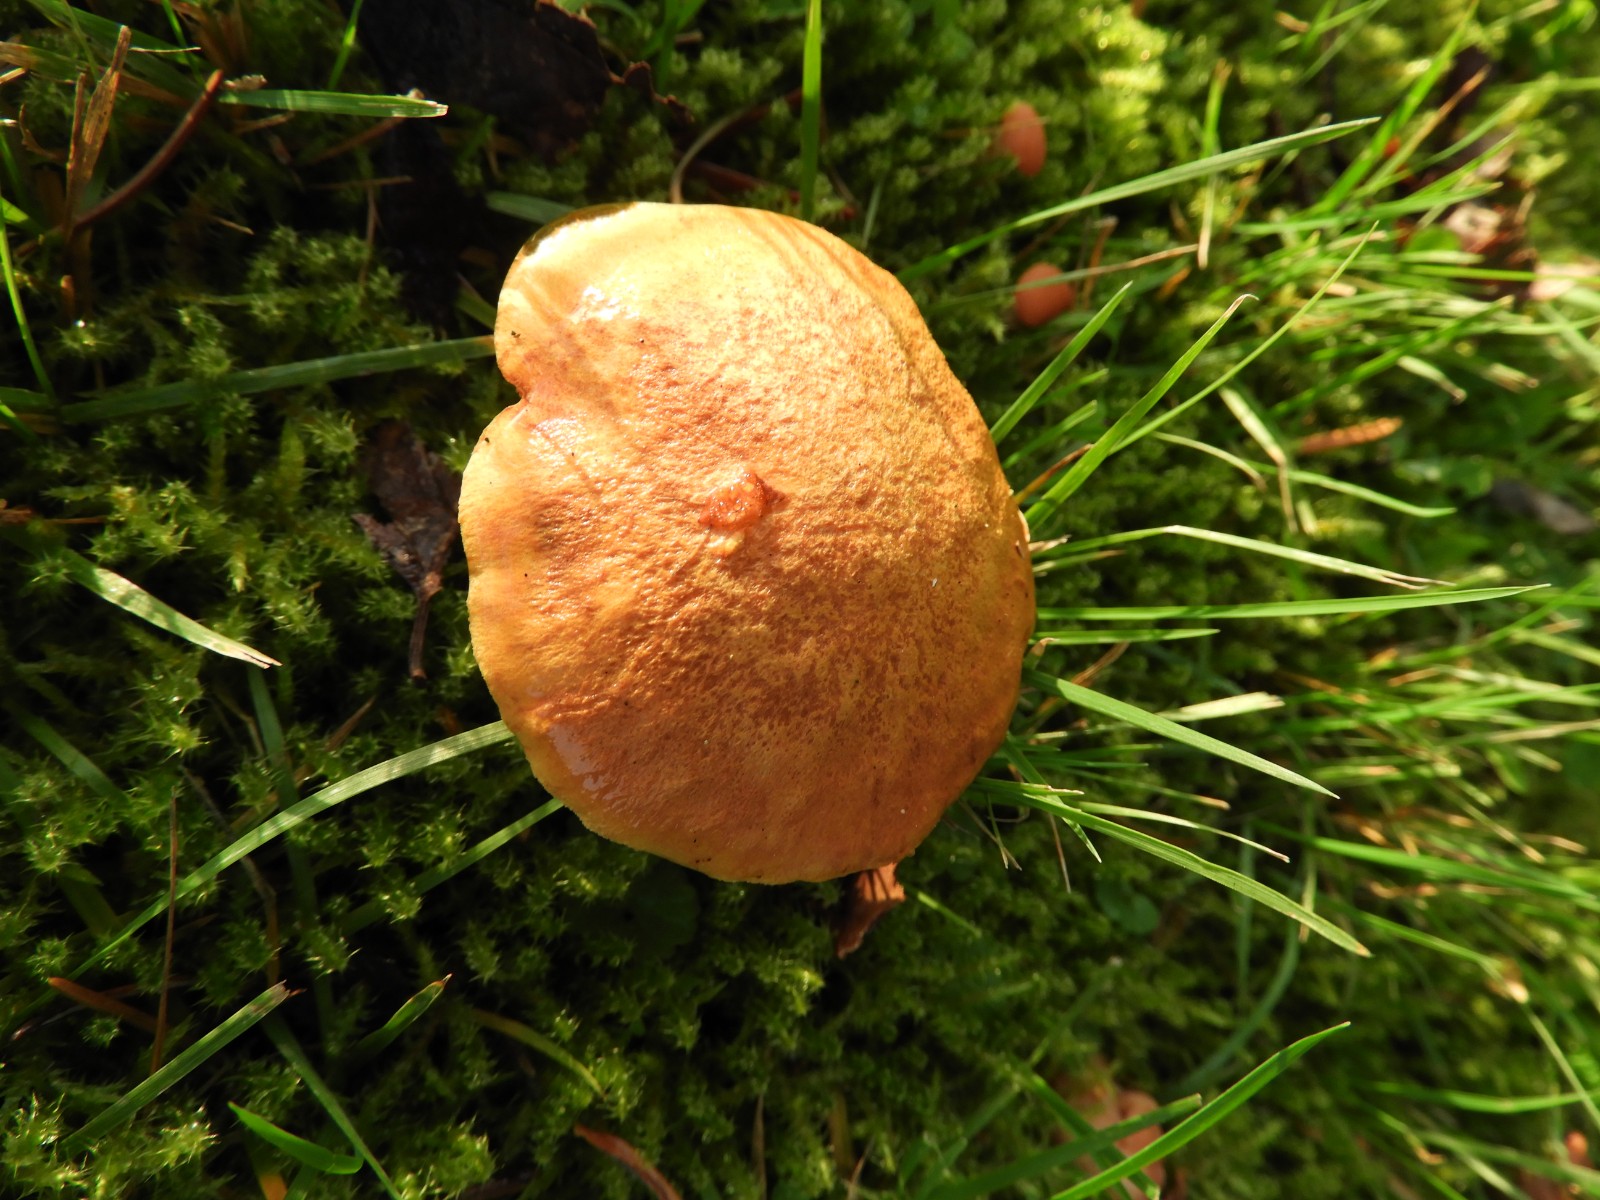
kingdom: Fungi
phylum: Basidiomycota
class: Agaricomycetes
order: Boletales
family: Boletaceae
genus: Chalciporus
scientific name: Chalciporus piperatus
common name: peberrørhat
